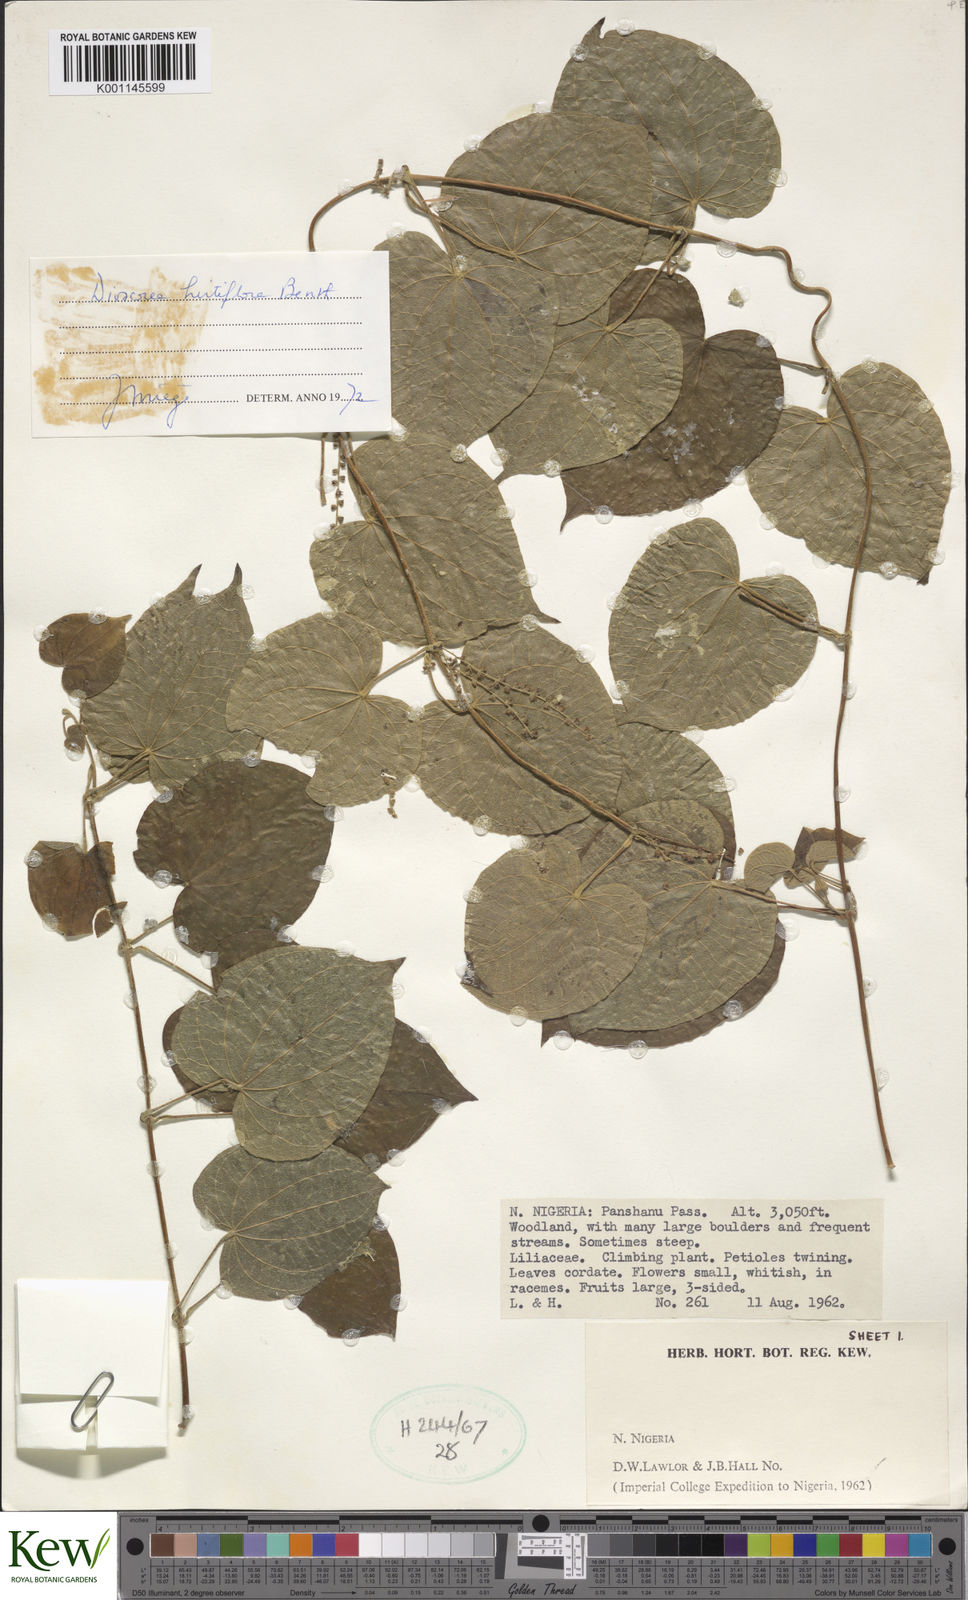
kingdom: Plantae
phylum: Tracheophyta
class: Liliopsida
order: Dioscoreales
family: Dioscoreaceae
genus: Dioscorea
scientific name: Dioscorea schimperiana
